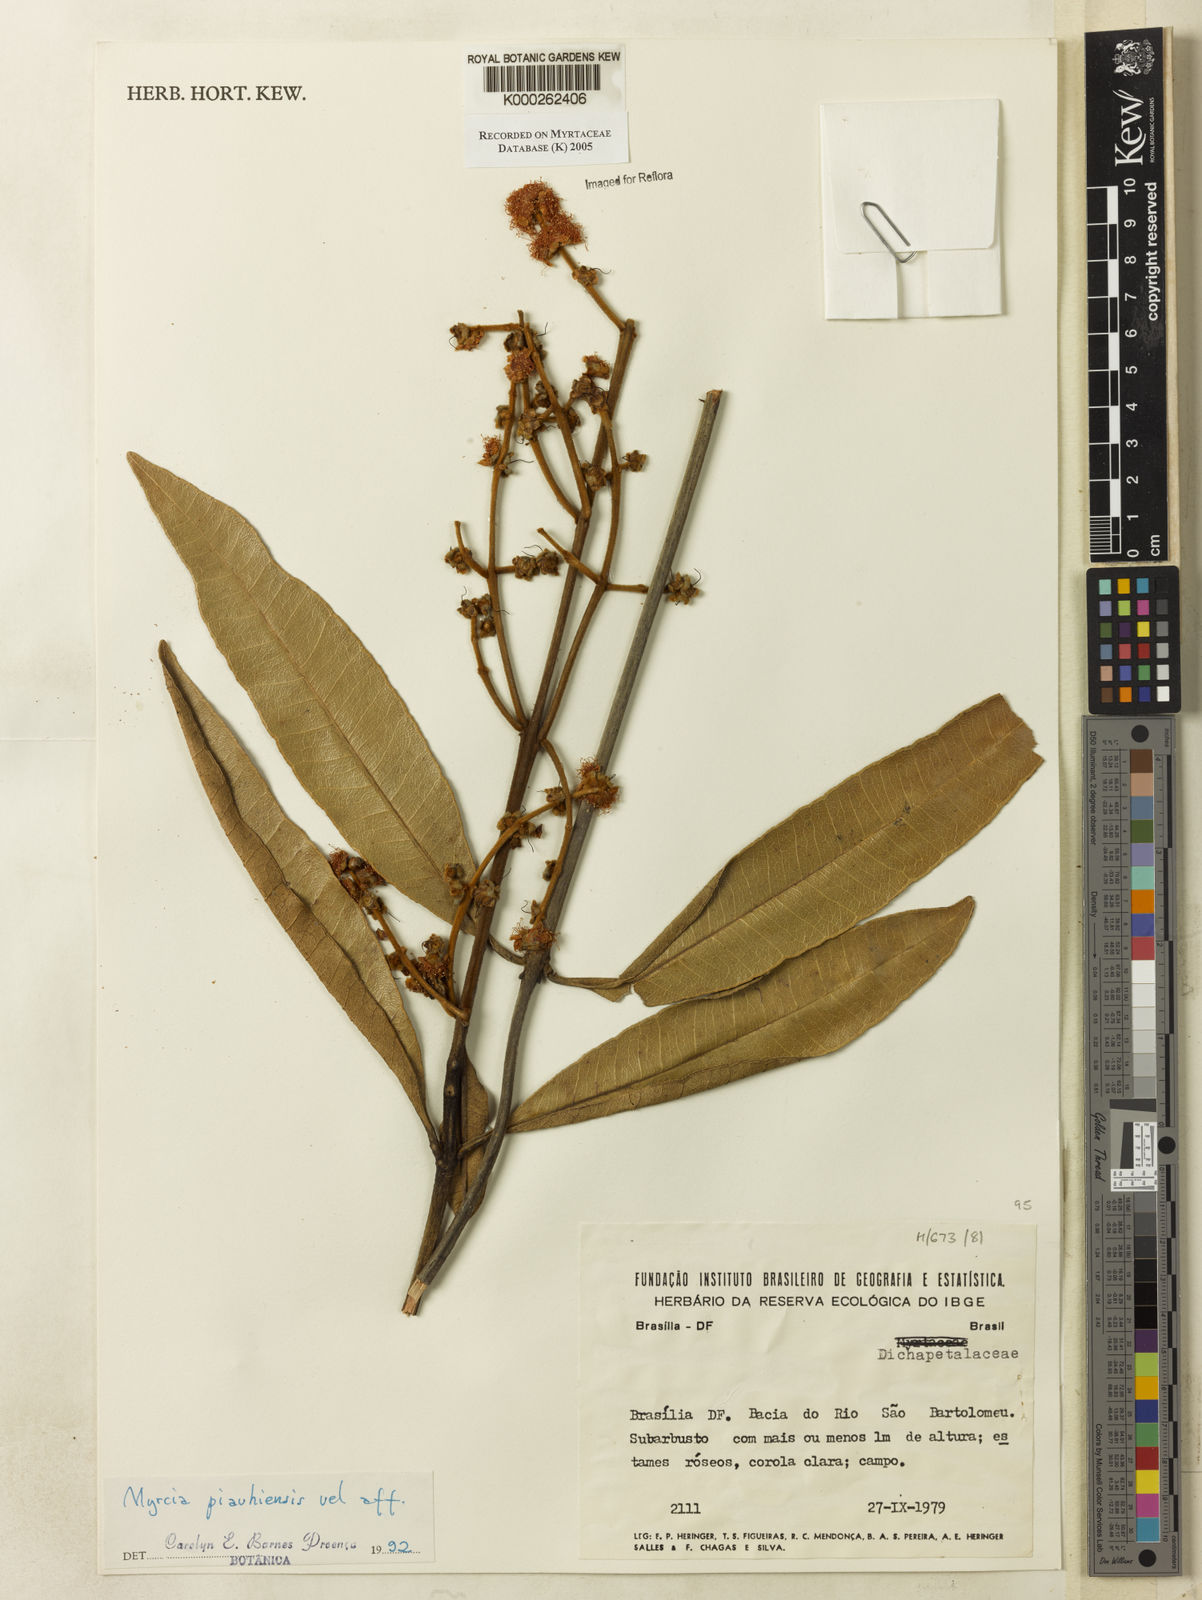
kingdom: Plantae
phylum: Tracheophyta
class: Magnoliopsida
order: Myrtales
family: Myrtaceae
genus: Myrcia
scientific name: Myrcia tomentosa
